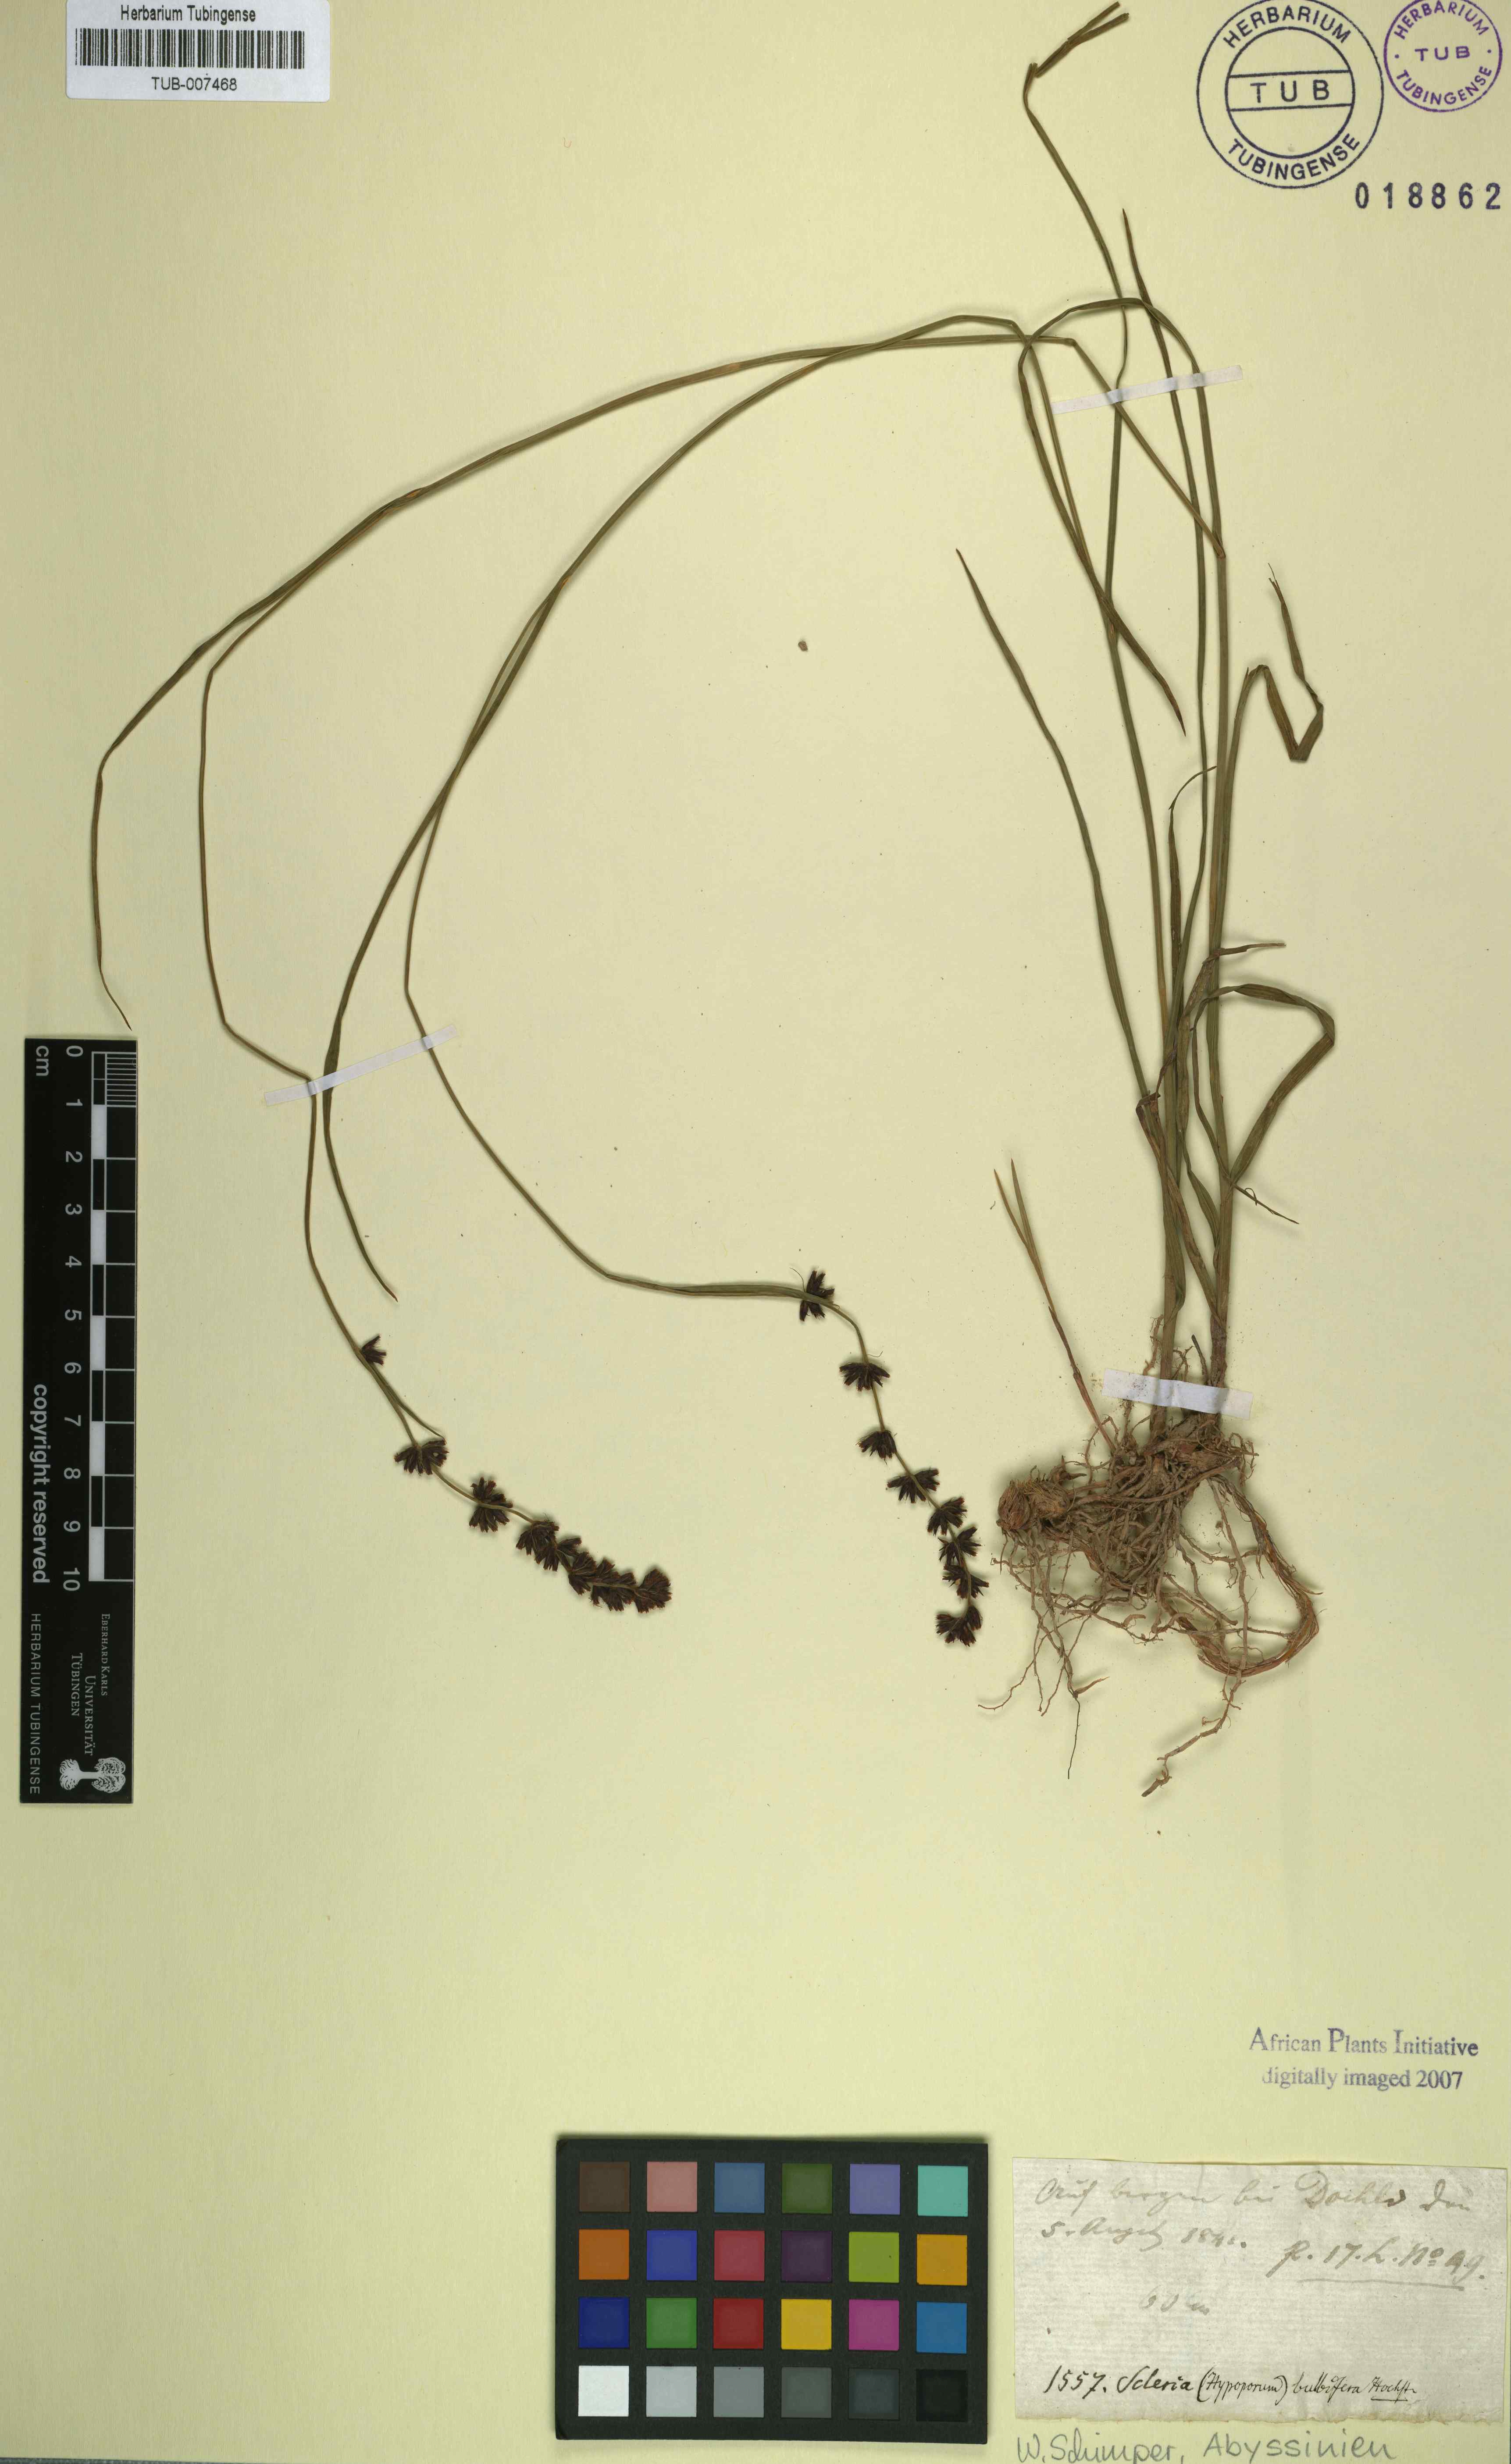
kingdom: Plantae
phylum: Tracheophyta
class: Liliopsida
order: Poales
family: Cyperaceae
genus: Scleria
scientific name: Scleria bulbifera
